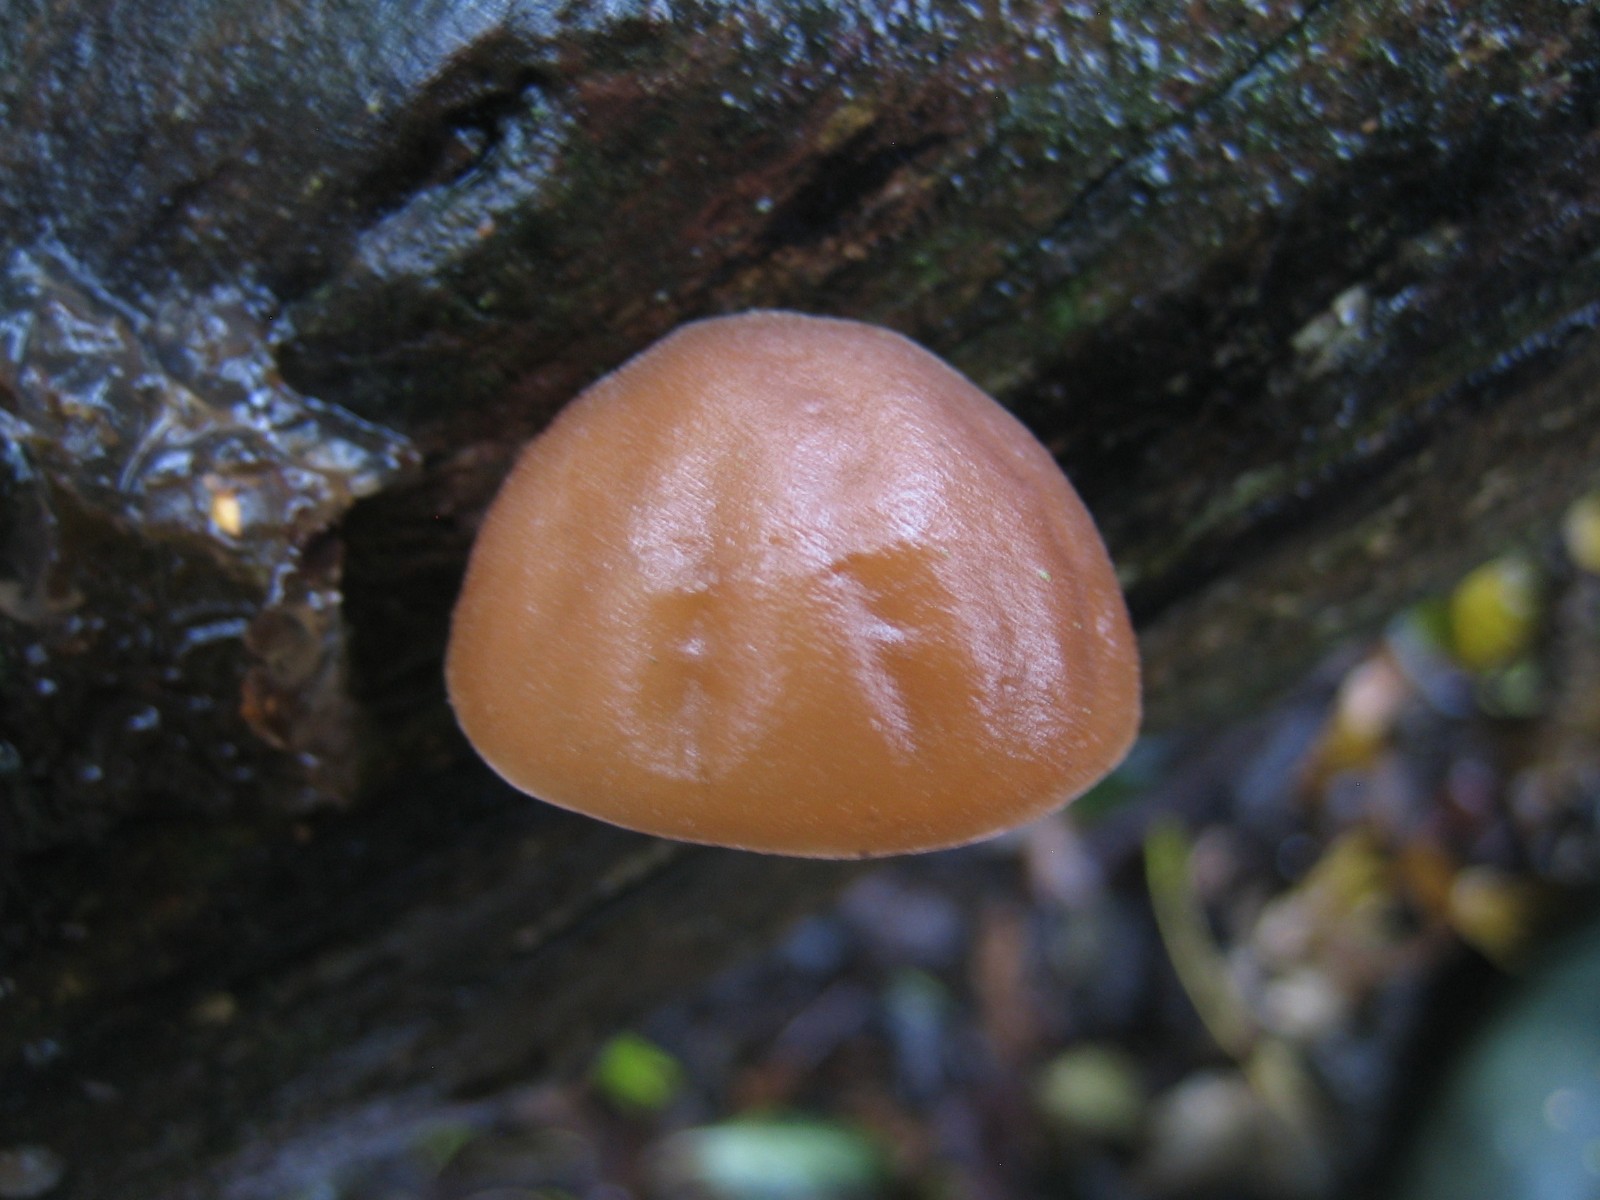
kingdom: Fungi
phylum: Basidiomycota
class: Agaricomycetes
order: Auriculariales
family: Auriculariaceae
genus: Auricularia
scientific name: Auricularia auricula-judae
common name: almindelig judasøre
